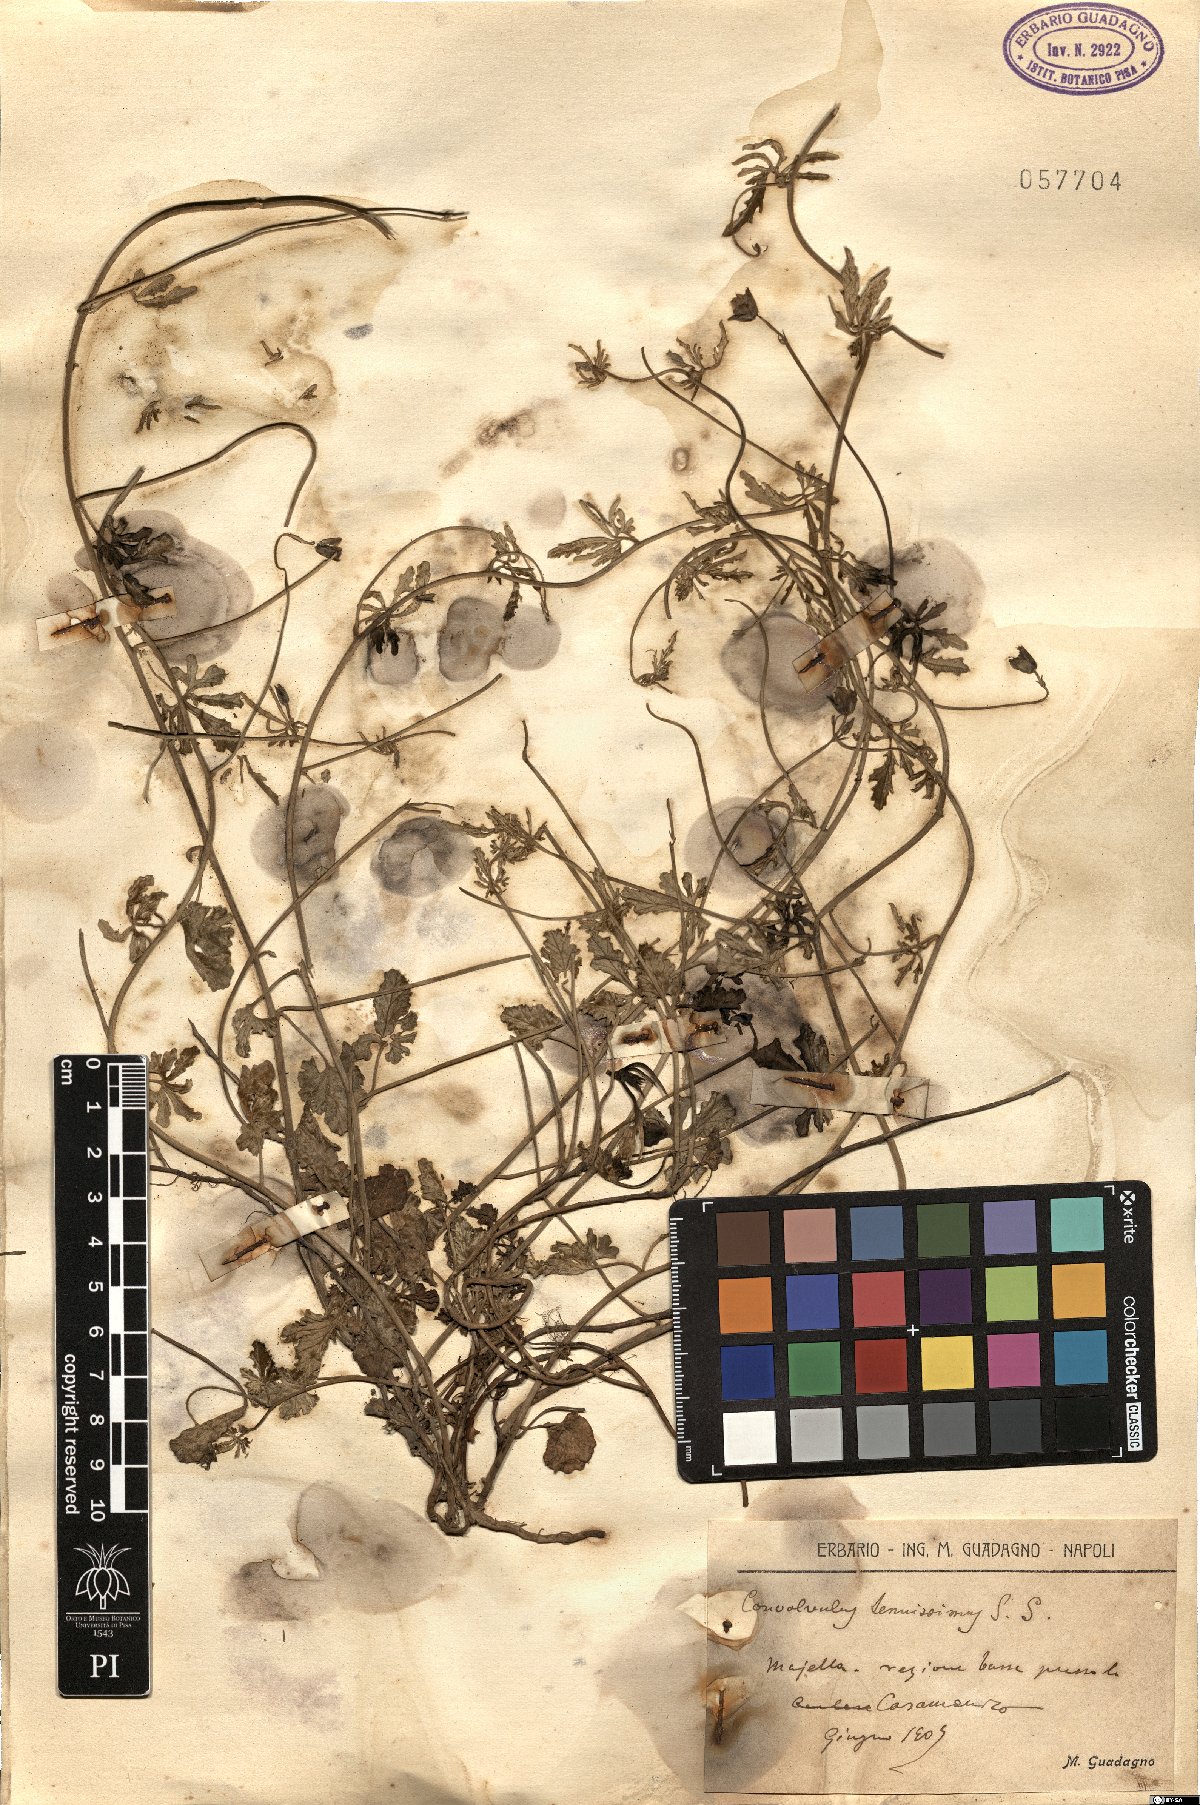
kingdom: Plantae
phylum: Tracheophyta
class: Magnoliopsida
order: Solanales
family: Convolvulaceae
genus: Convolvulus
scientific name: Convolvulus elegantissimus
